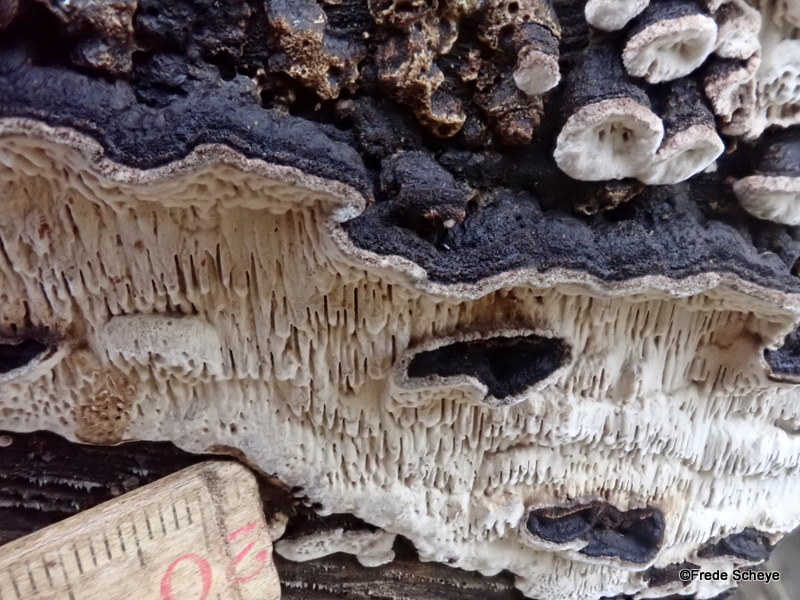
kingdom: Fungi
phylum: Basidiomycota
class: Agaricomycetes
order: Polyporales
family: Polyporaceae
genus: Podofomes
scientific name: Podofomes mollis
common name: blød begporesvamp
